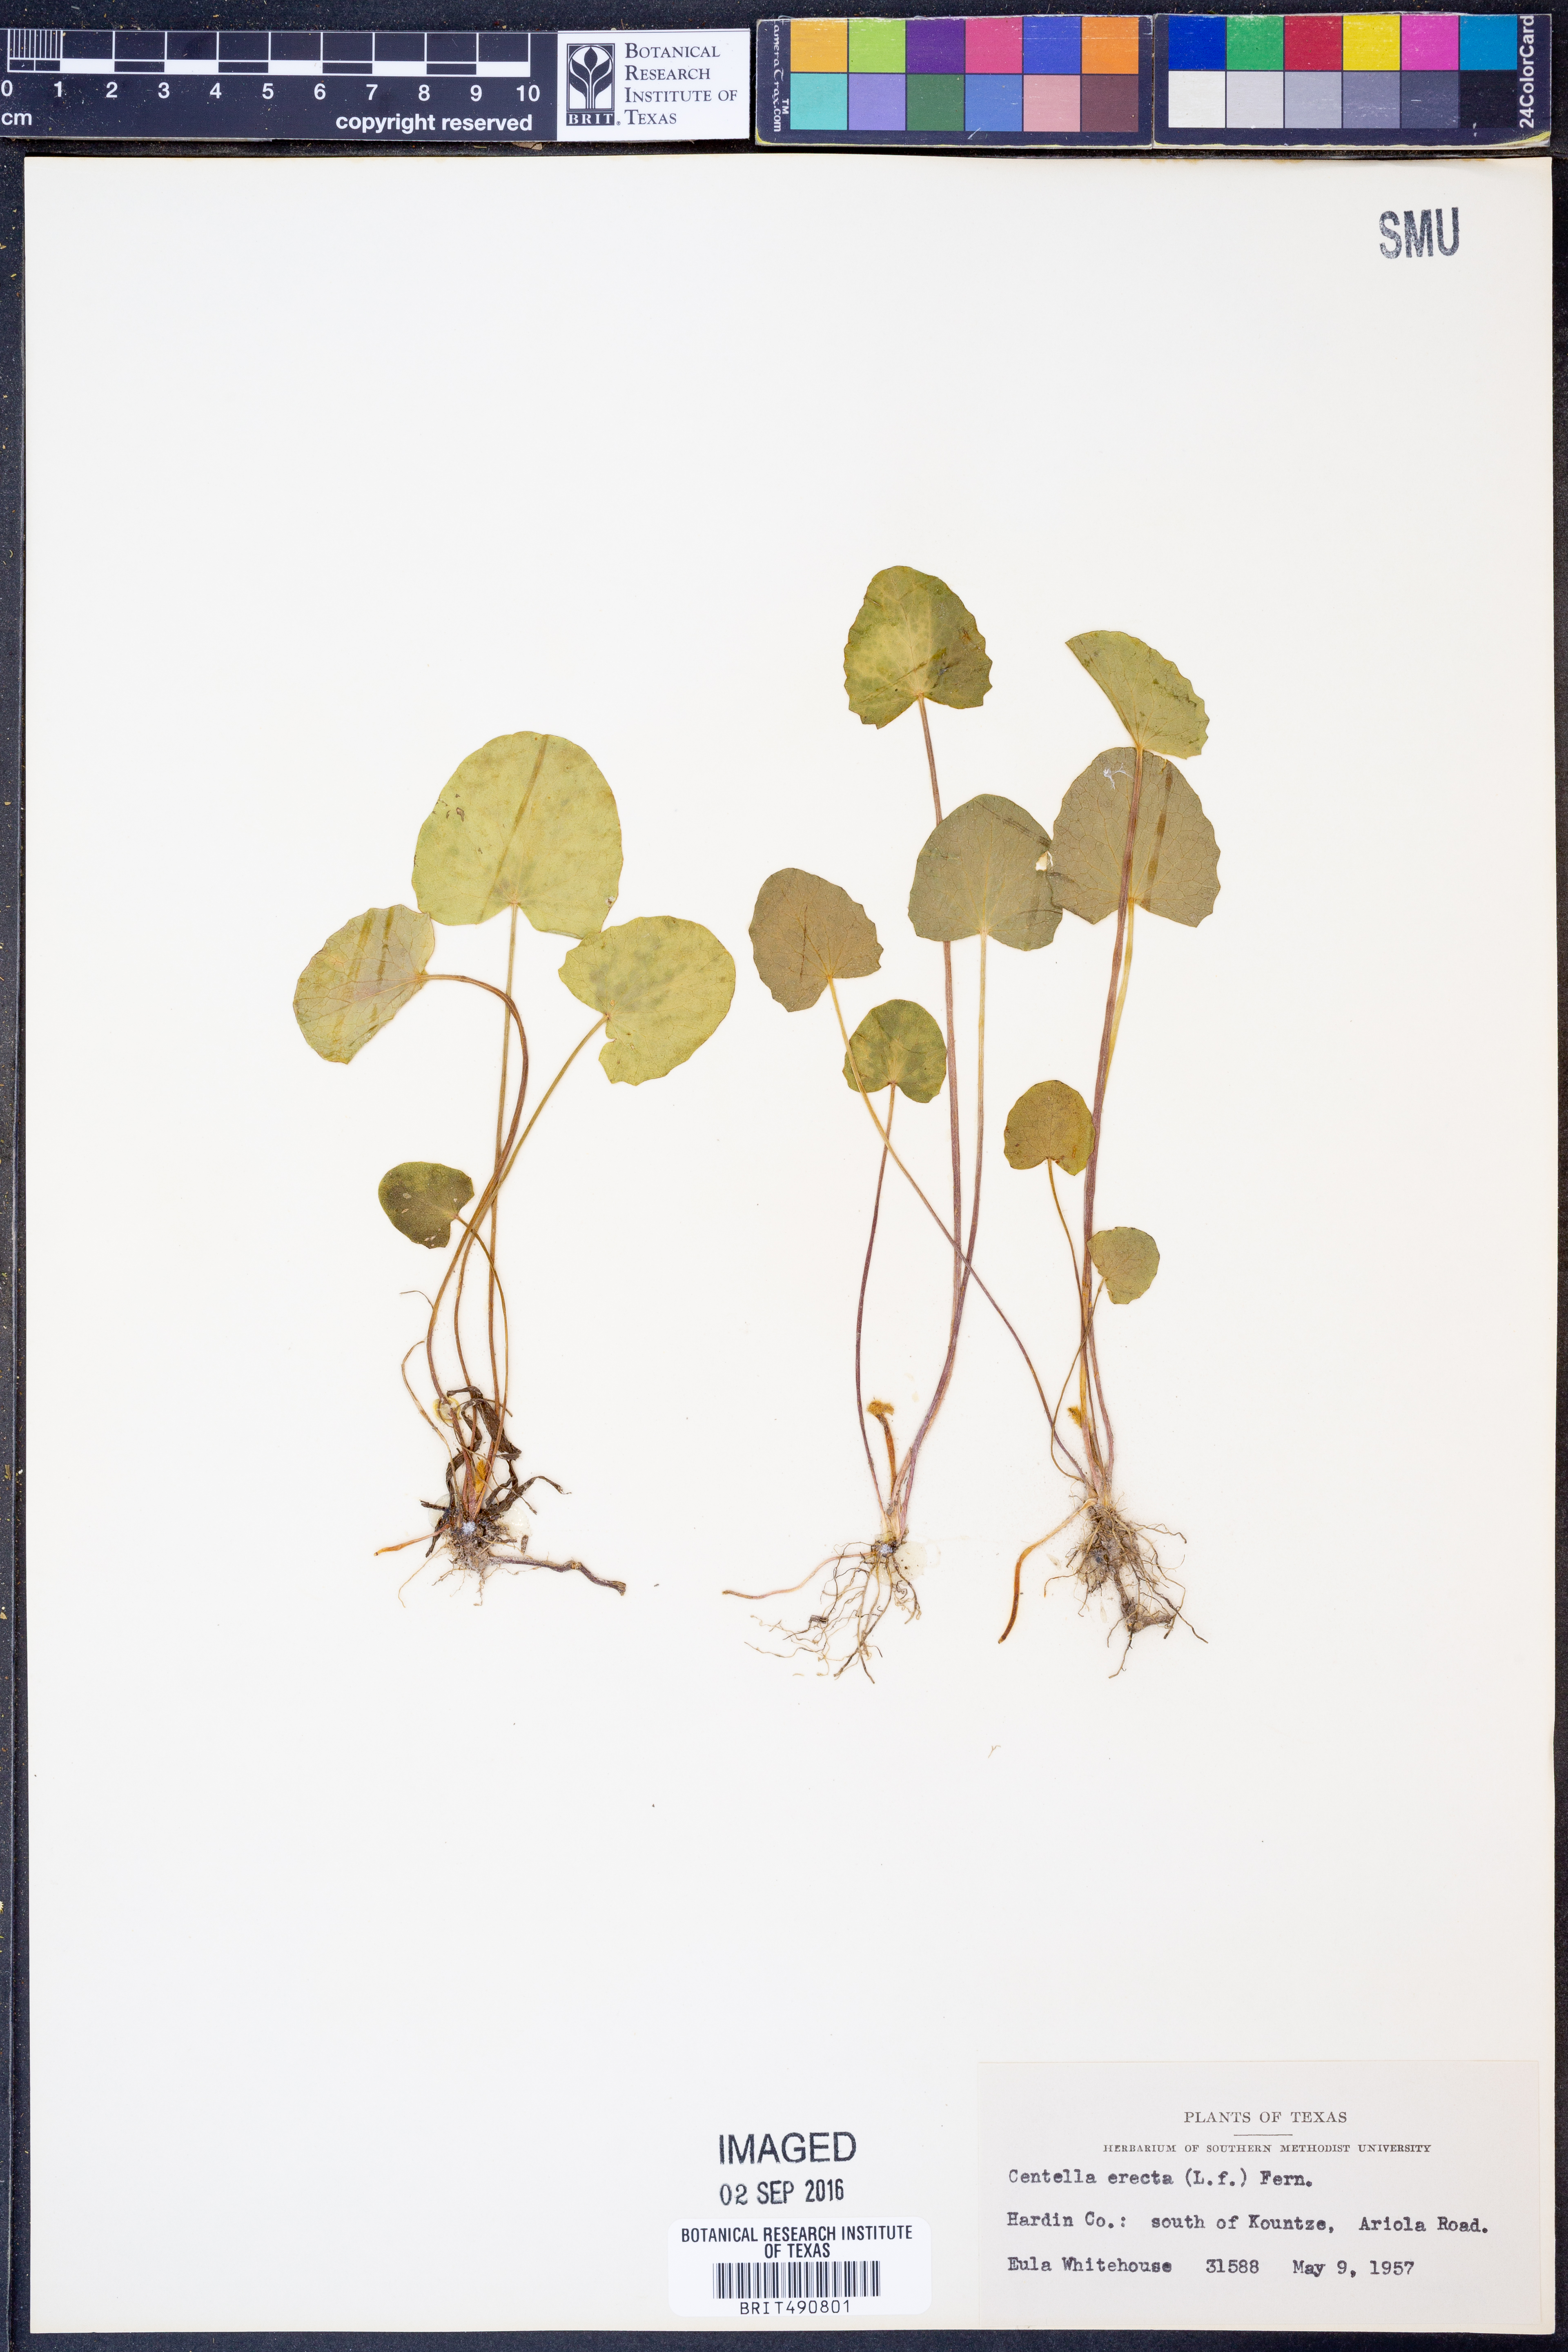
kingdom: Plantae
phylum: Tracheophyta
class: Magnoliopsida
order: Apiales
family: Apiaceae
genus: Centella
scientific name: Centella erecta
